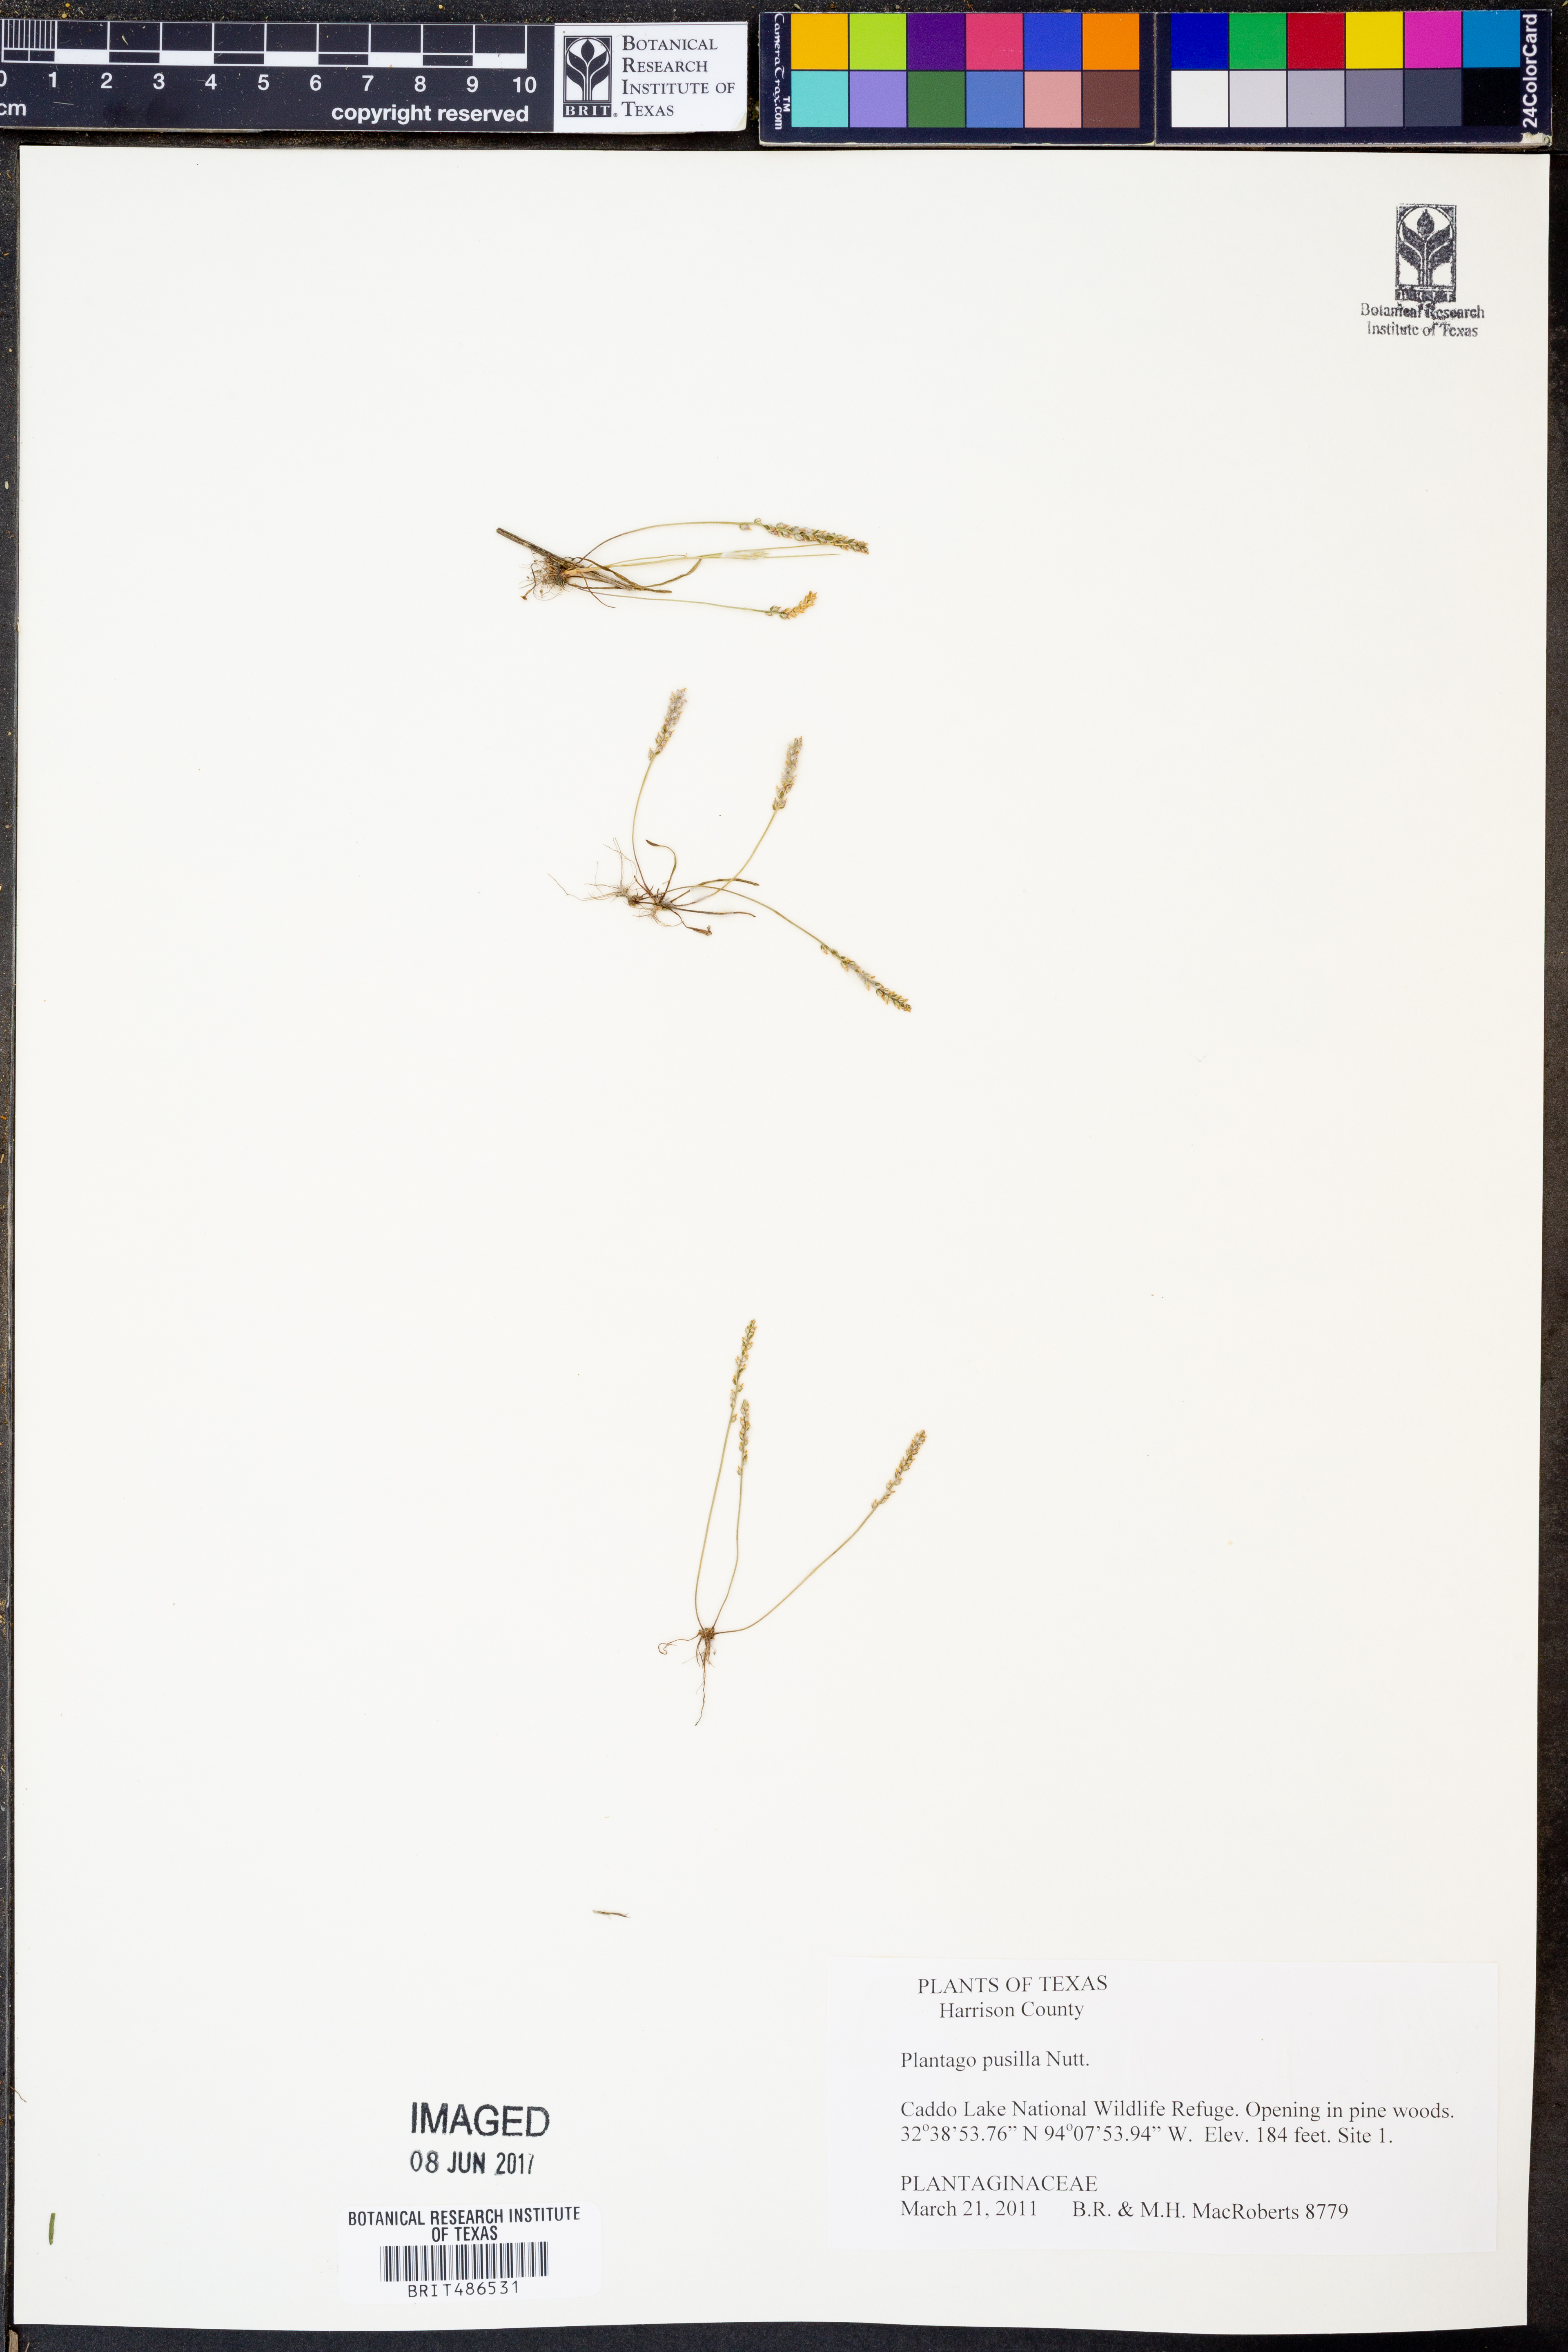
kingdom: Plantae
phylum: Tracheophyta
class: Magnoliopsida
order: Lamiales
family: Plantaginaceae
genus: Plantago
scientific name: Plantago pusilla
